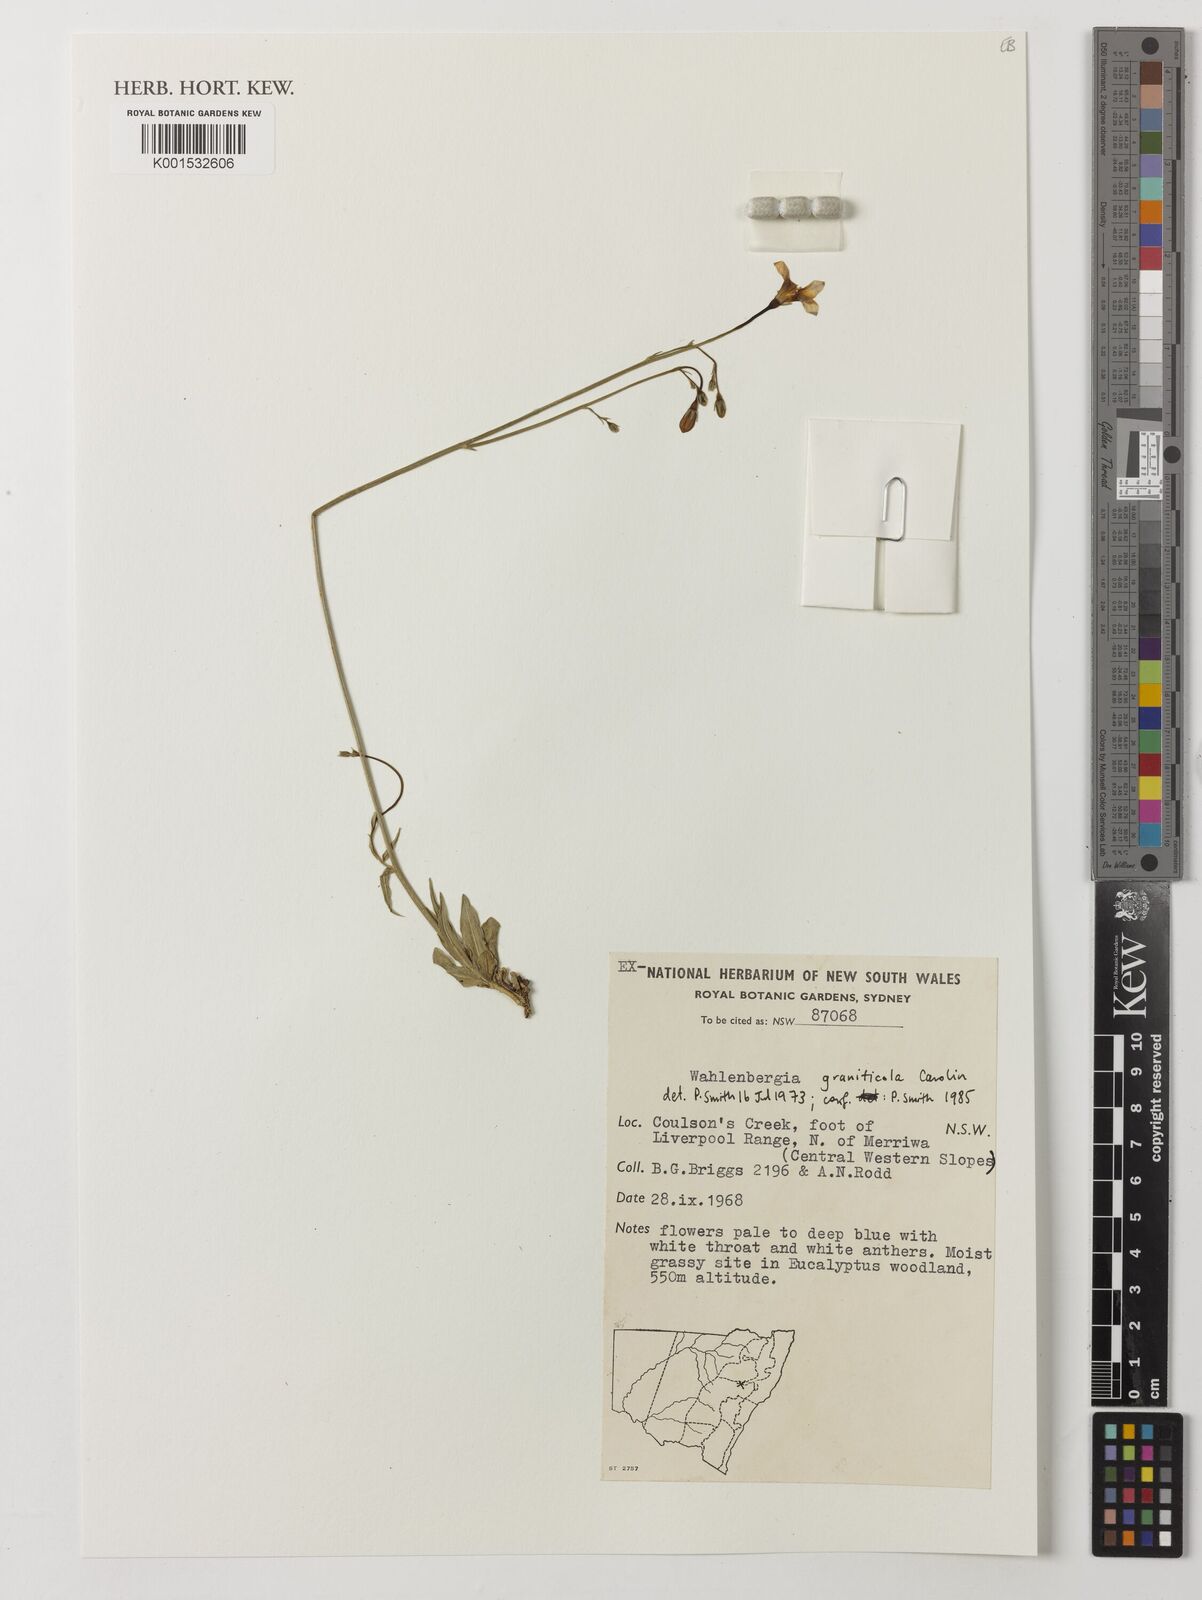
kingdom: Plantae
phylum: Tracheophyta
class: Magnoliopsida
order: Asterales
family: Campanulaceae
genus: Wahlenbergia
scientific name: Wahlenbergia graniticola
